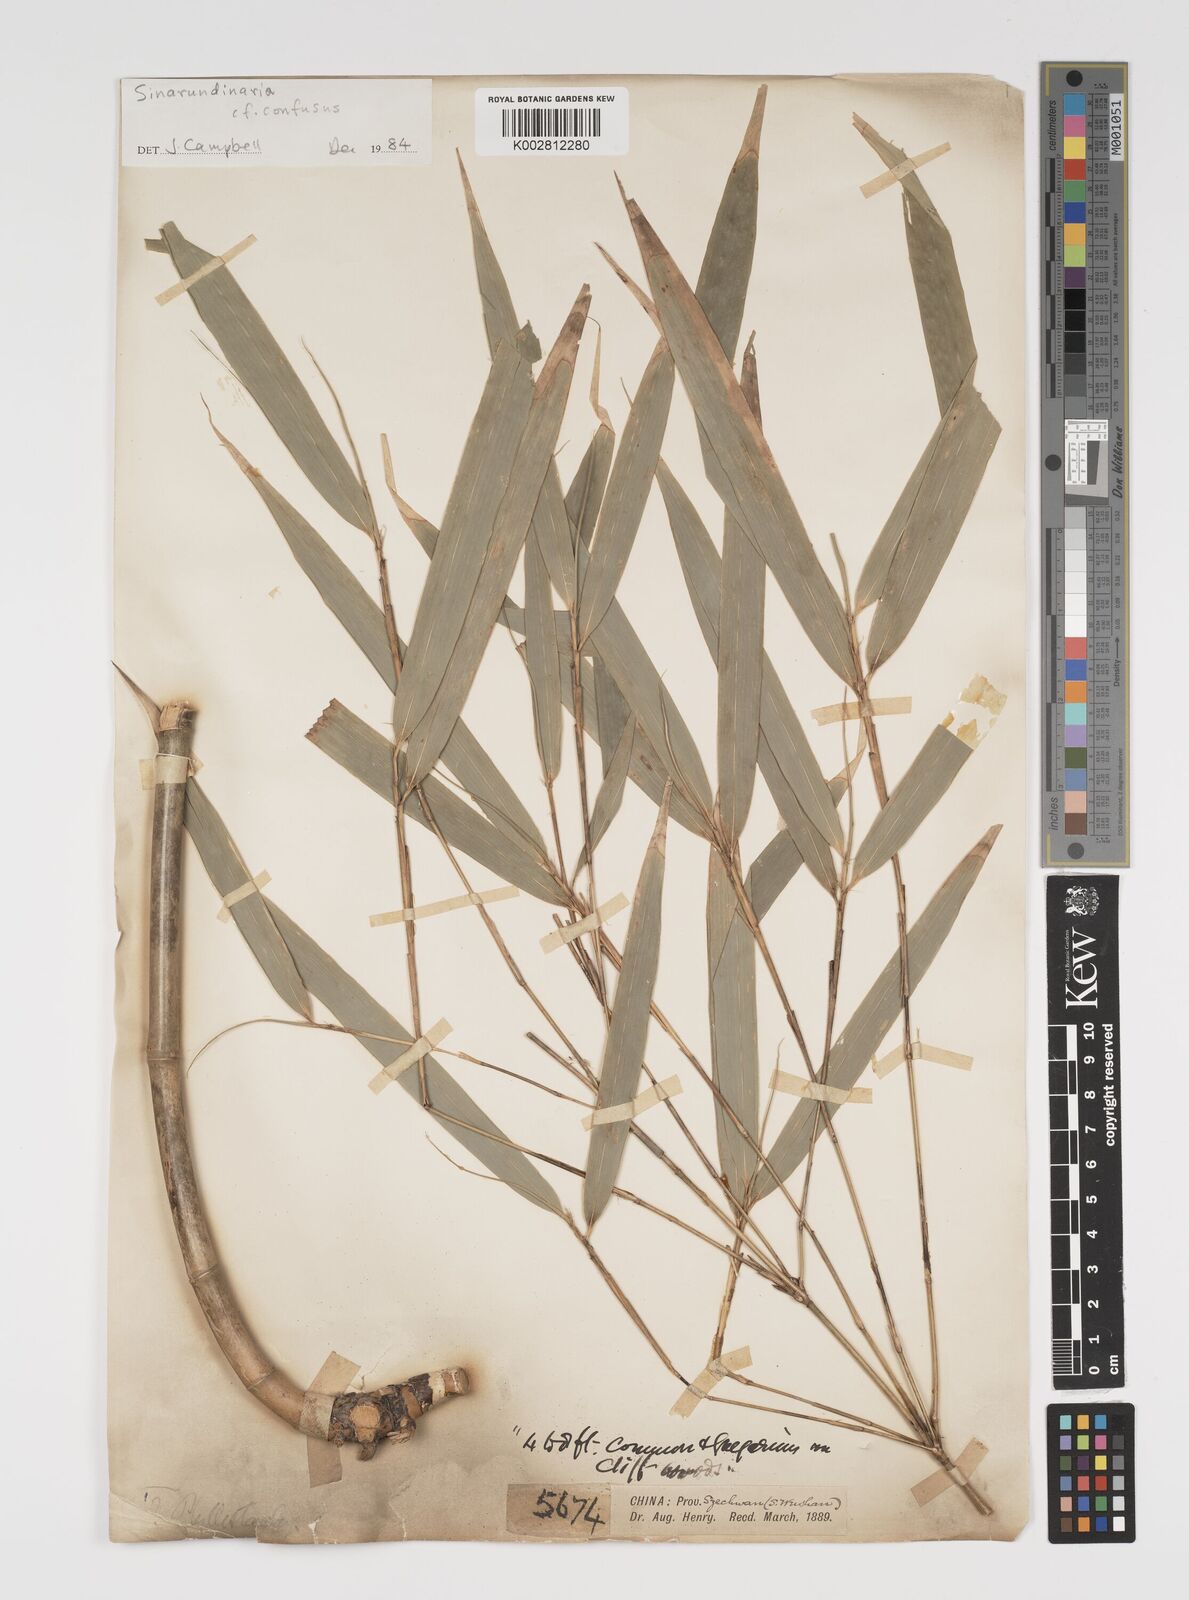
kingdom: Plantae
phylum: Tracheophyta
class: Liliopsida
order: Poales
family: Poaceae
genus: Yushania
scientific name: Yushania confusa
